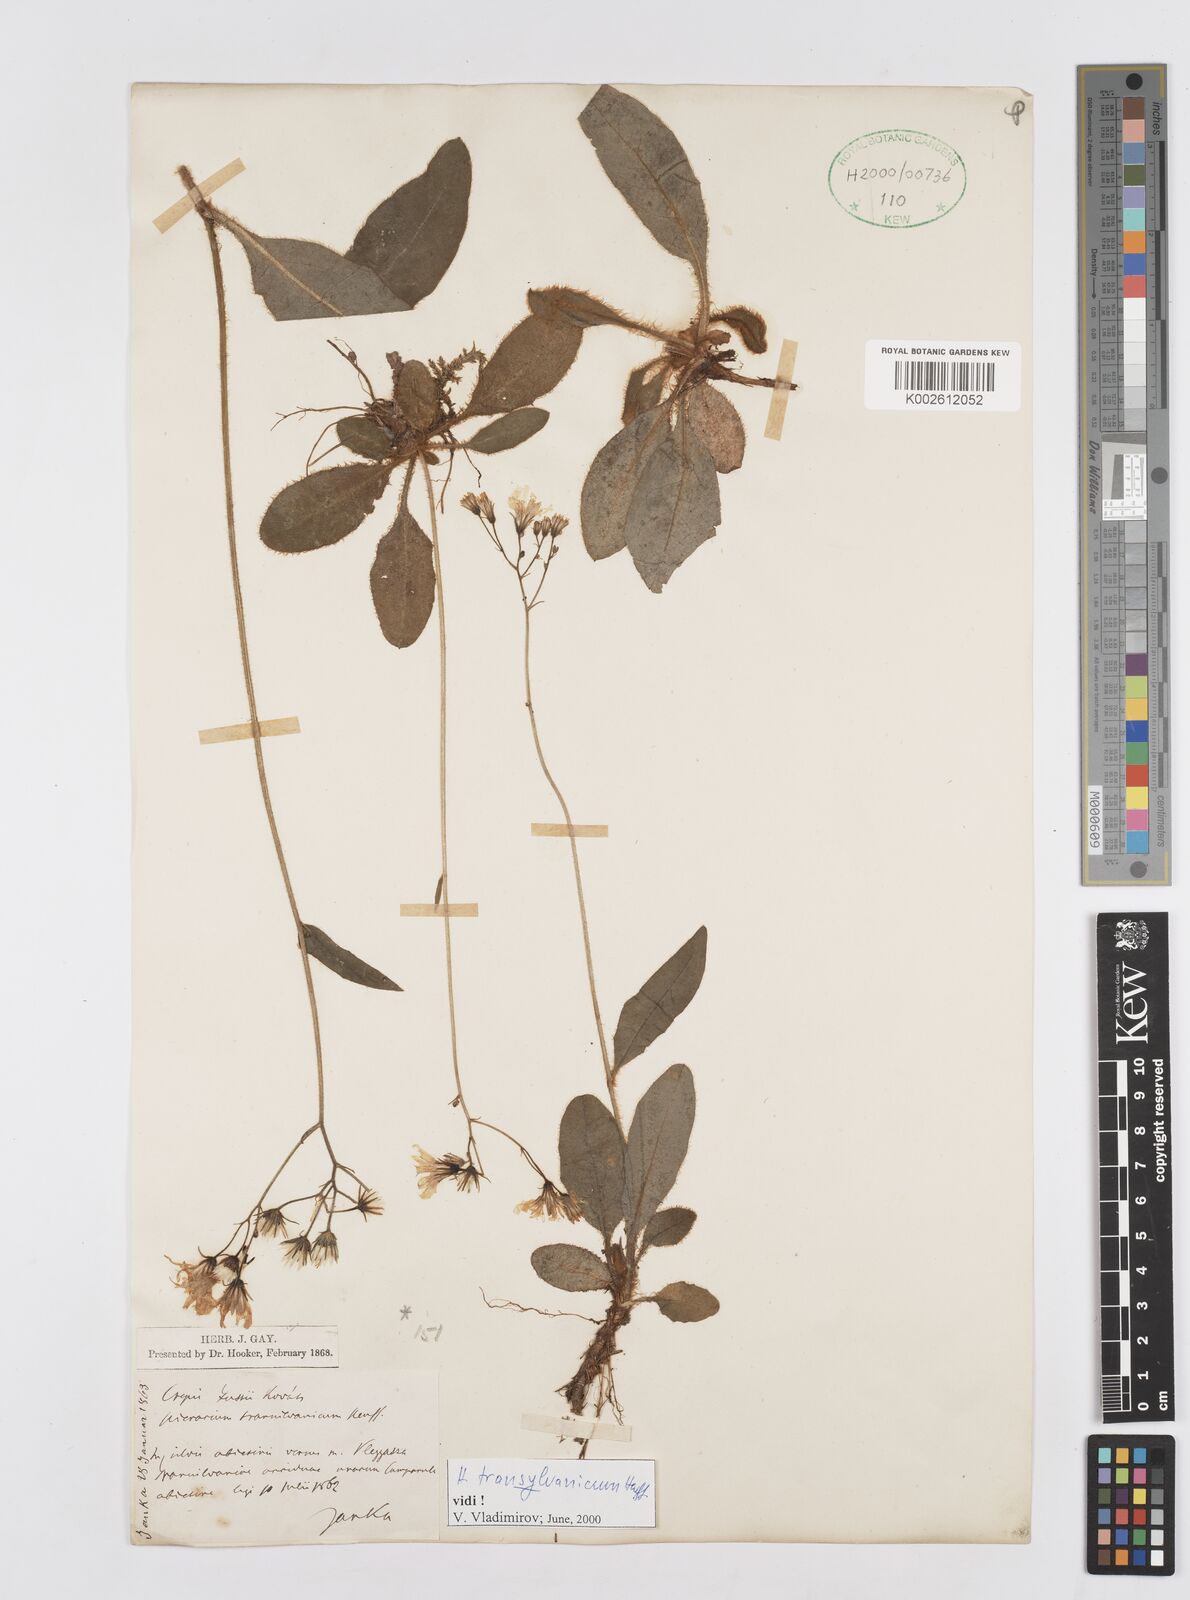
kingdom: Plantae
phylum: Tracheophyta
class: Magnoliopsida
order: Asterales
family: Asteraceae
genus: Hieracium
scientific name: Hieracium transylvanicum
